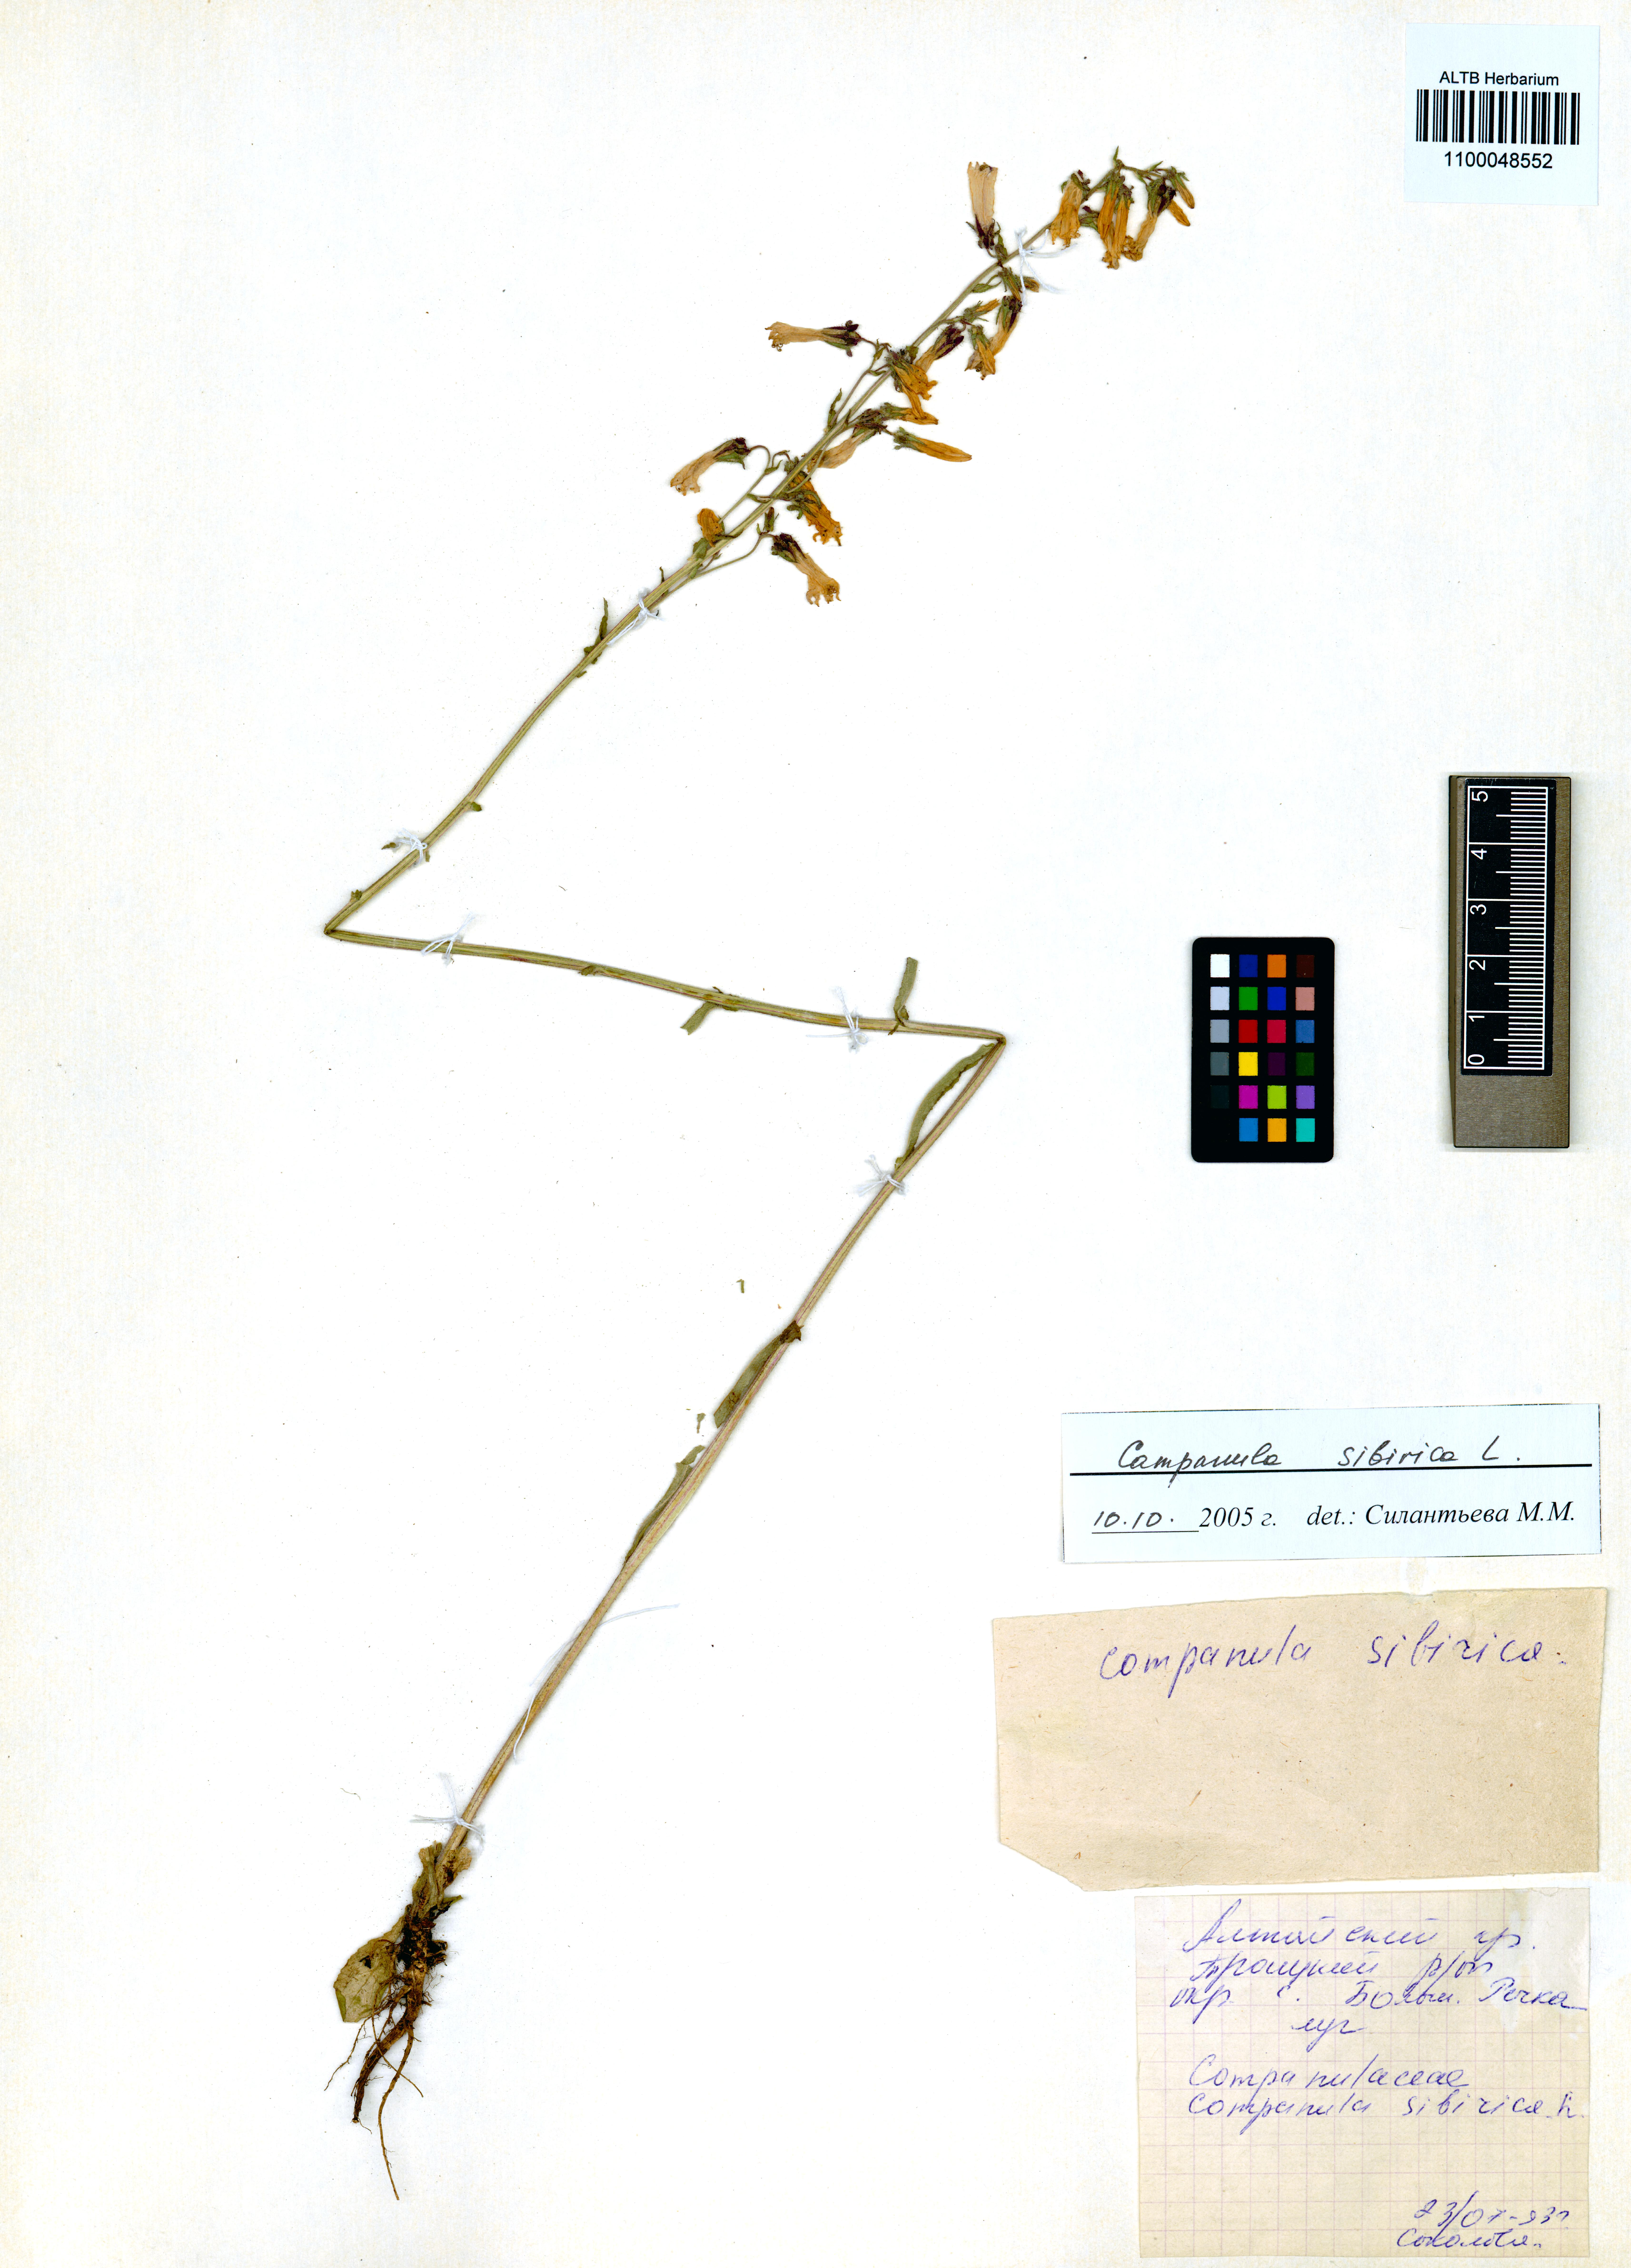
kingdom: Plantae
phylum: Tracheophyta
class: Magnoliopsida
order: Asterales
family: Campanulaceae
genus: Campanula
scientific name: Campanula sibirica
